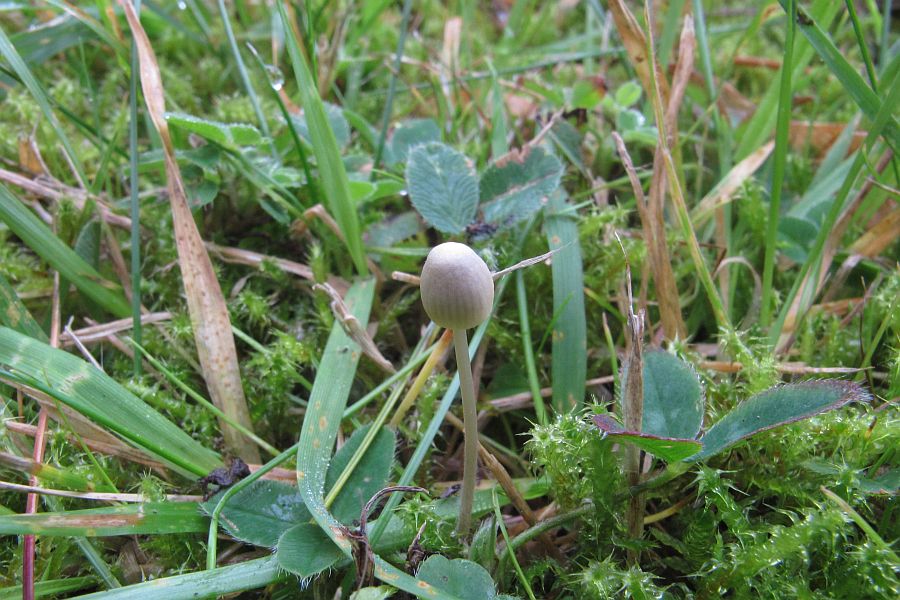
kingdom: Fungi
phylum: Basidiomycota
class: Agaricomycetes
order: Agaricales
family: Mycenaceae
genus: Mycena
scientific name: Mycena citrinomarginata
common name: gulægget huesvamp
